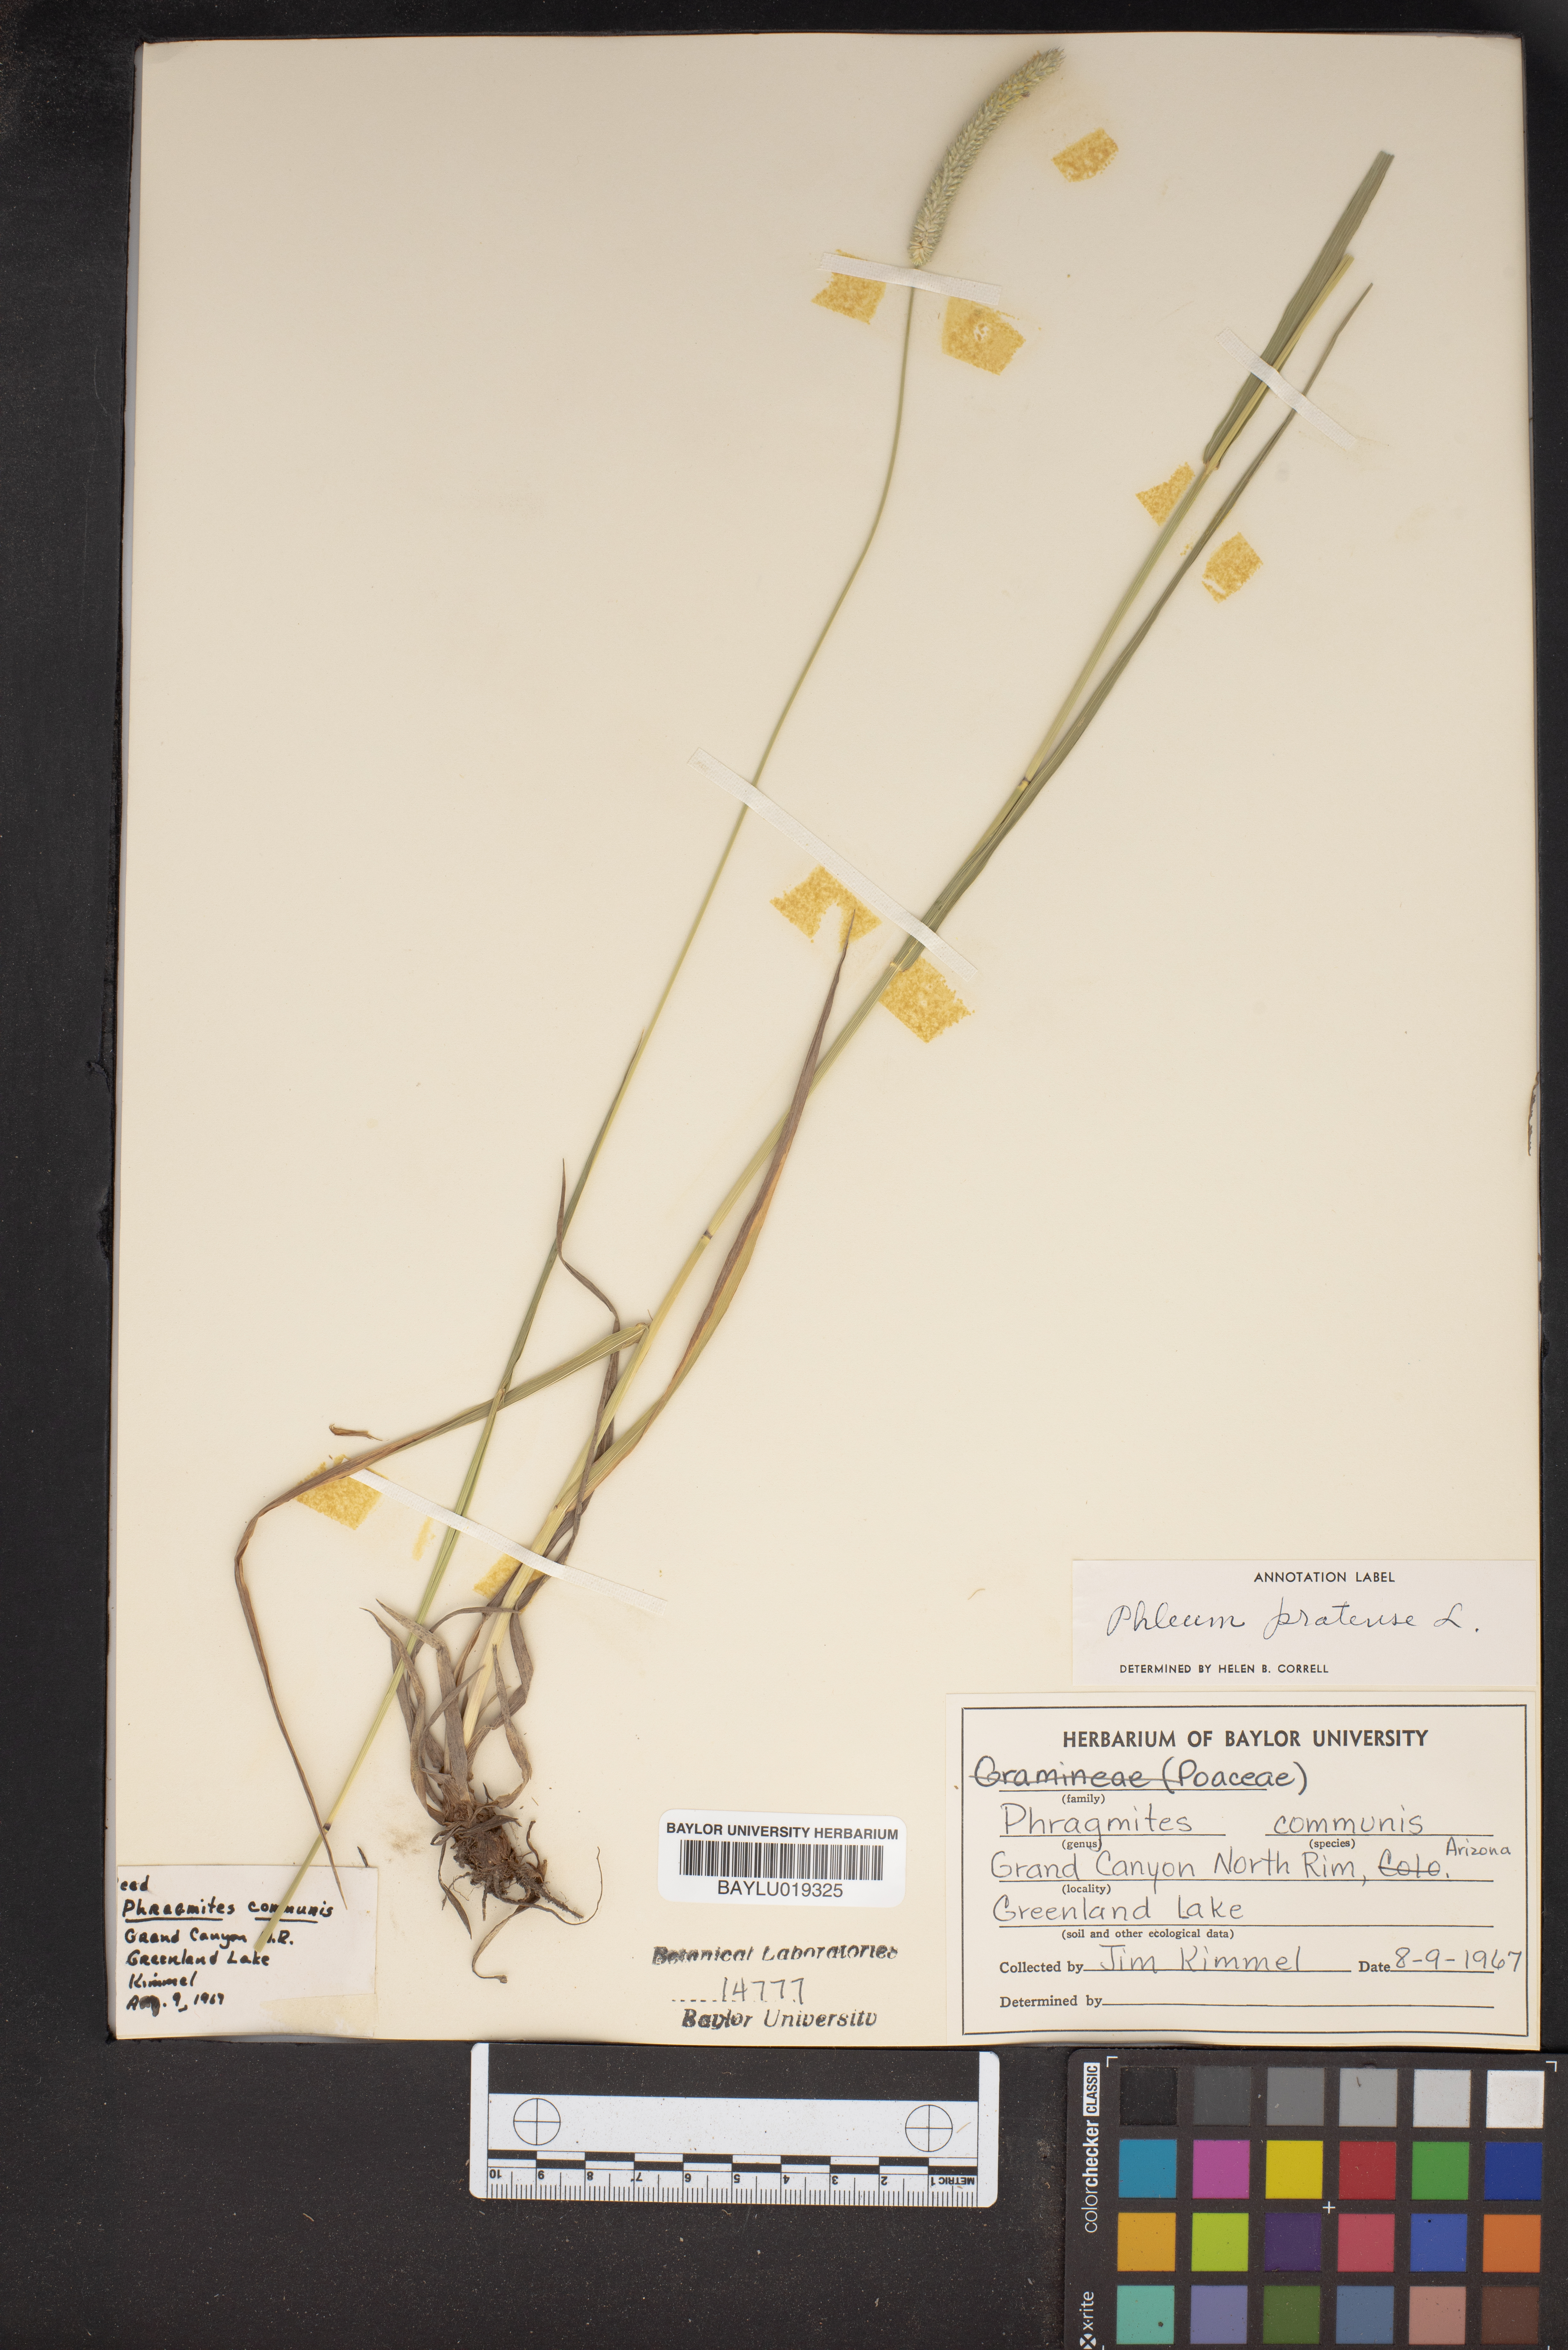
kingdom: Plantae
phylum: Tracheophyta
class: Liliopsida
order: Poales
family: Poaceae
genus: Phragmites
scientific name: Phragmites australis
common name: Common reed
